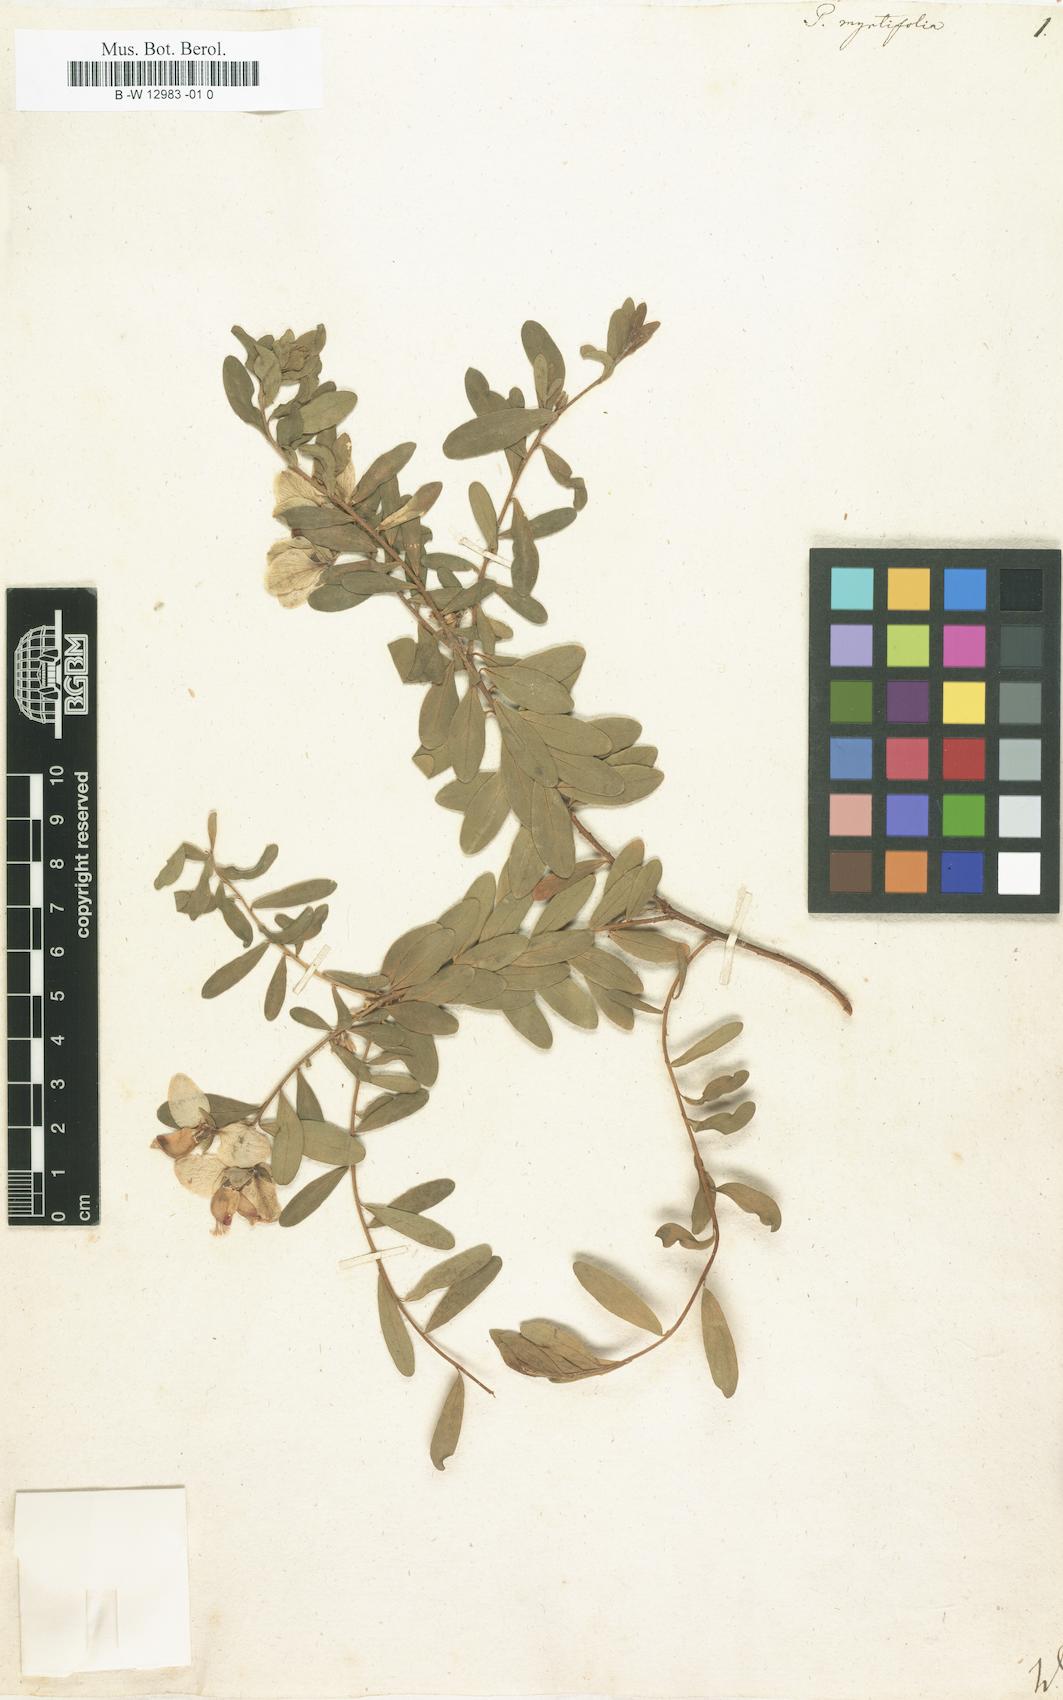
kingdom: Plantae
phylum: Tracheophyta
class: Magnoliopsida
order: Fabales
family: Polygalaceae
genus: Polygala
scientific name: Polygala myrtifolia
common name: Myrtle-leaf milkwort
